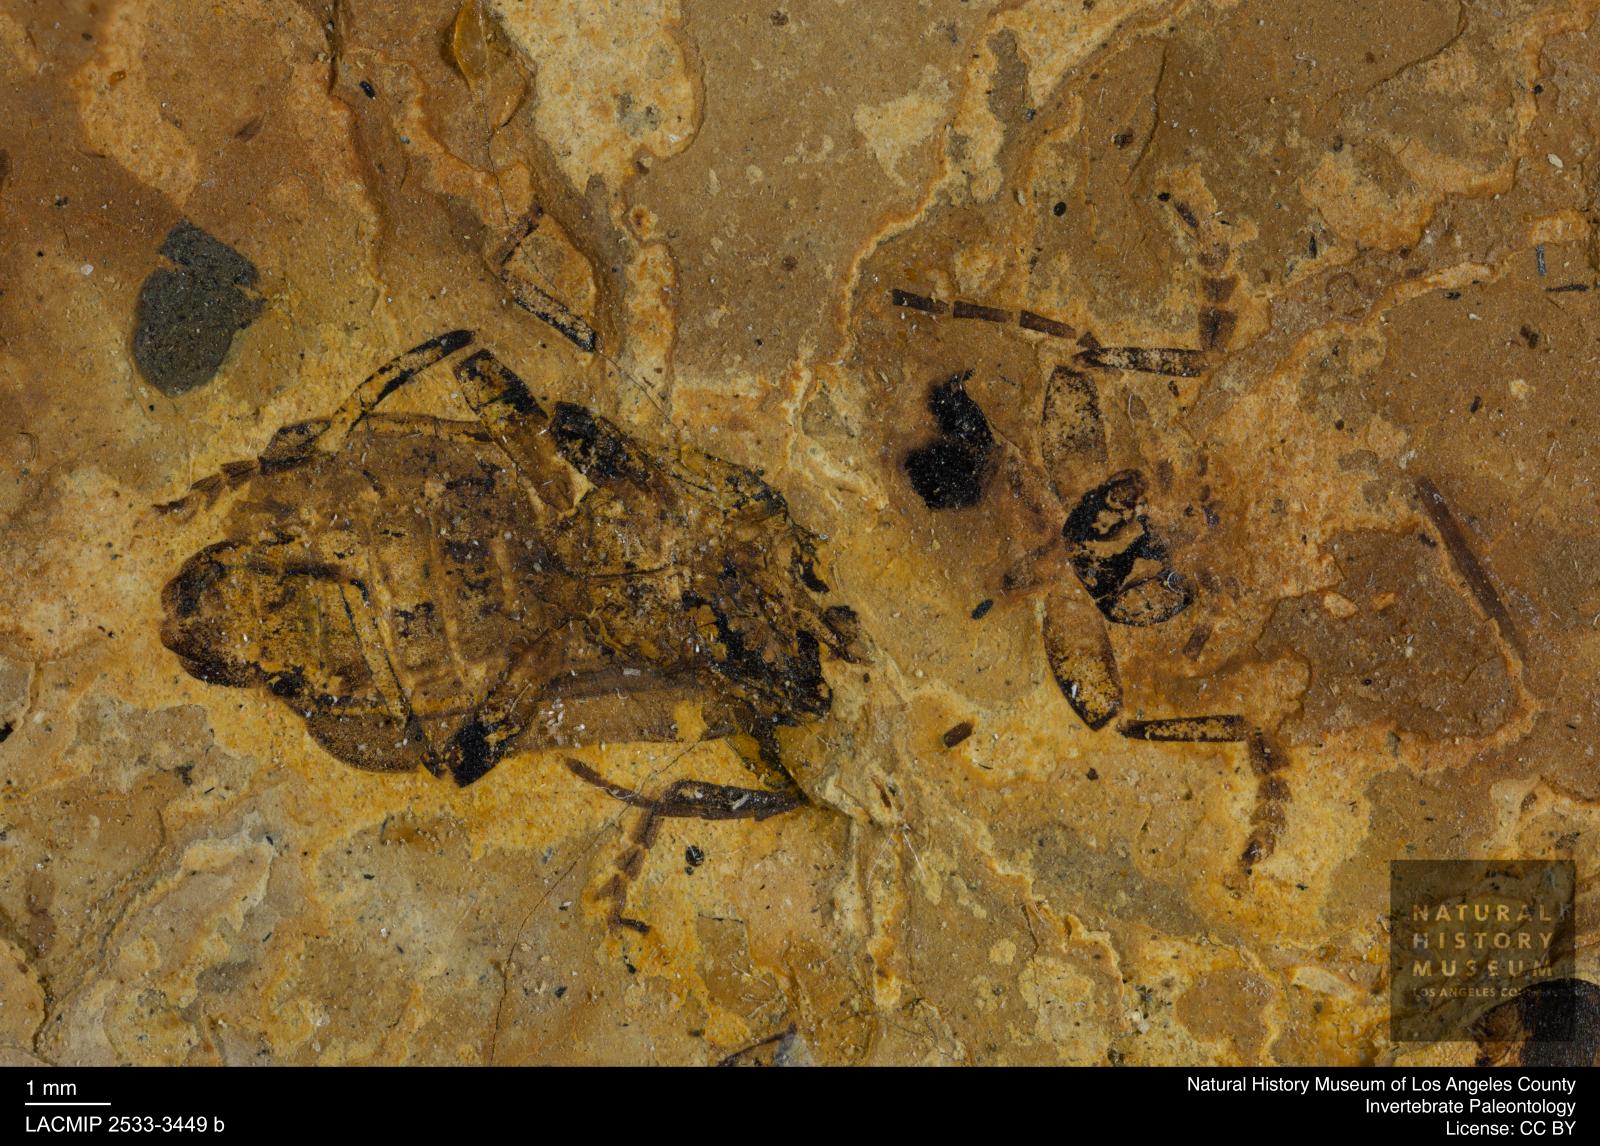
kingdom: Animalia
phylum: Arthropoda
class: Insecta
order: Coleoptera
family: Cantharidae
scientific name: Cantharidae
